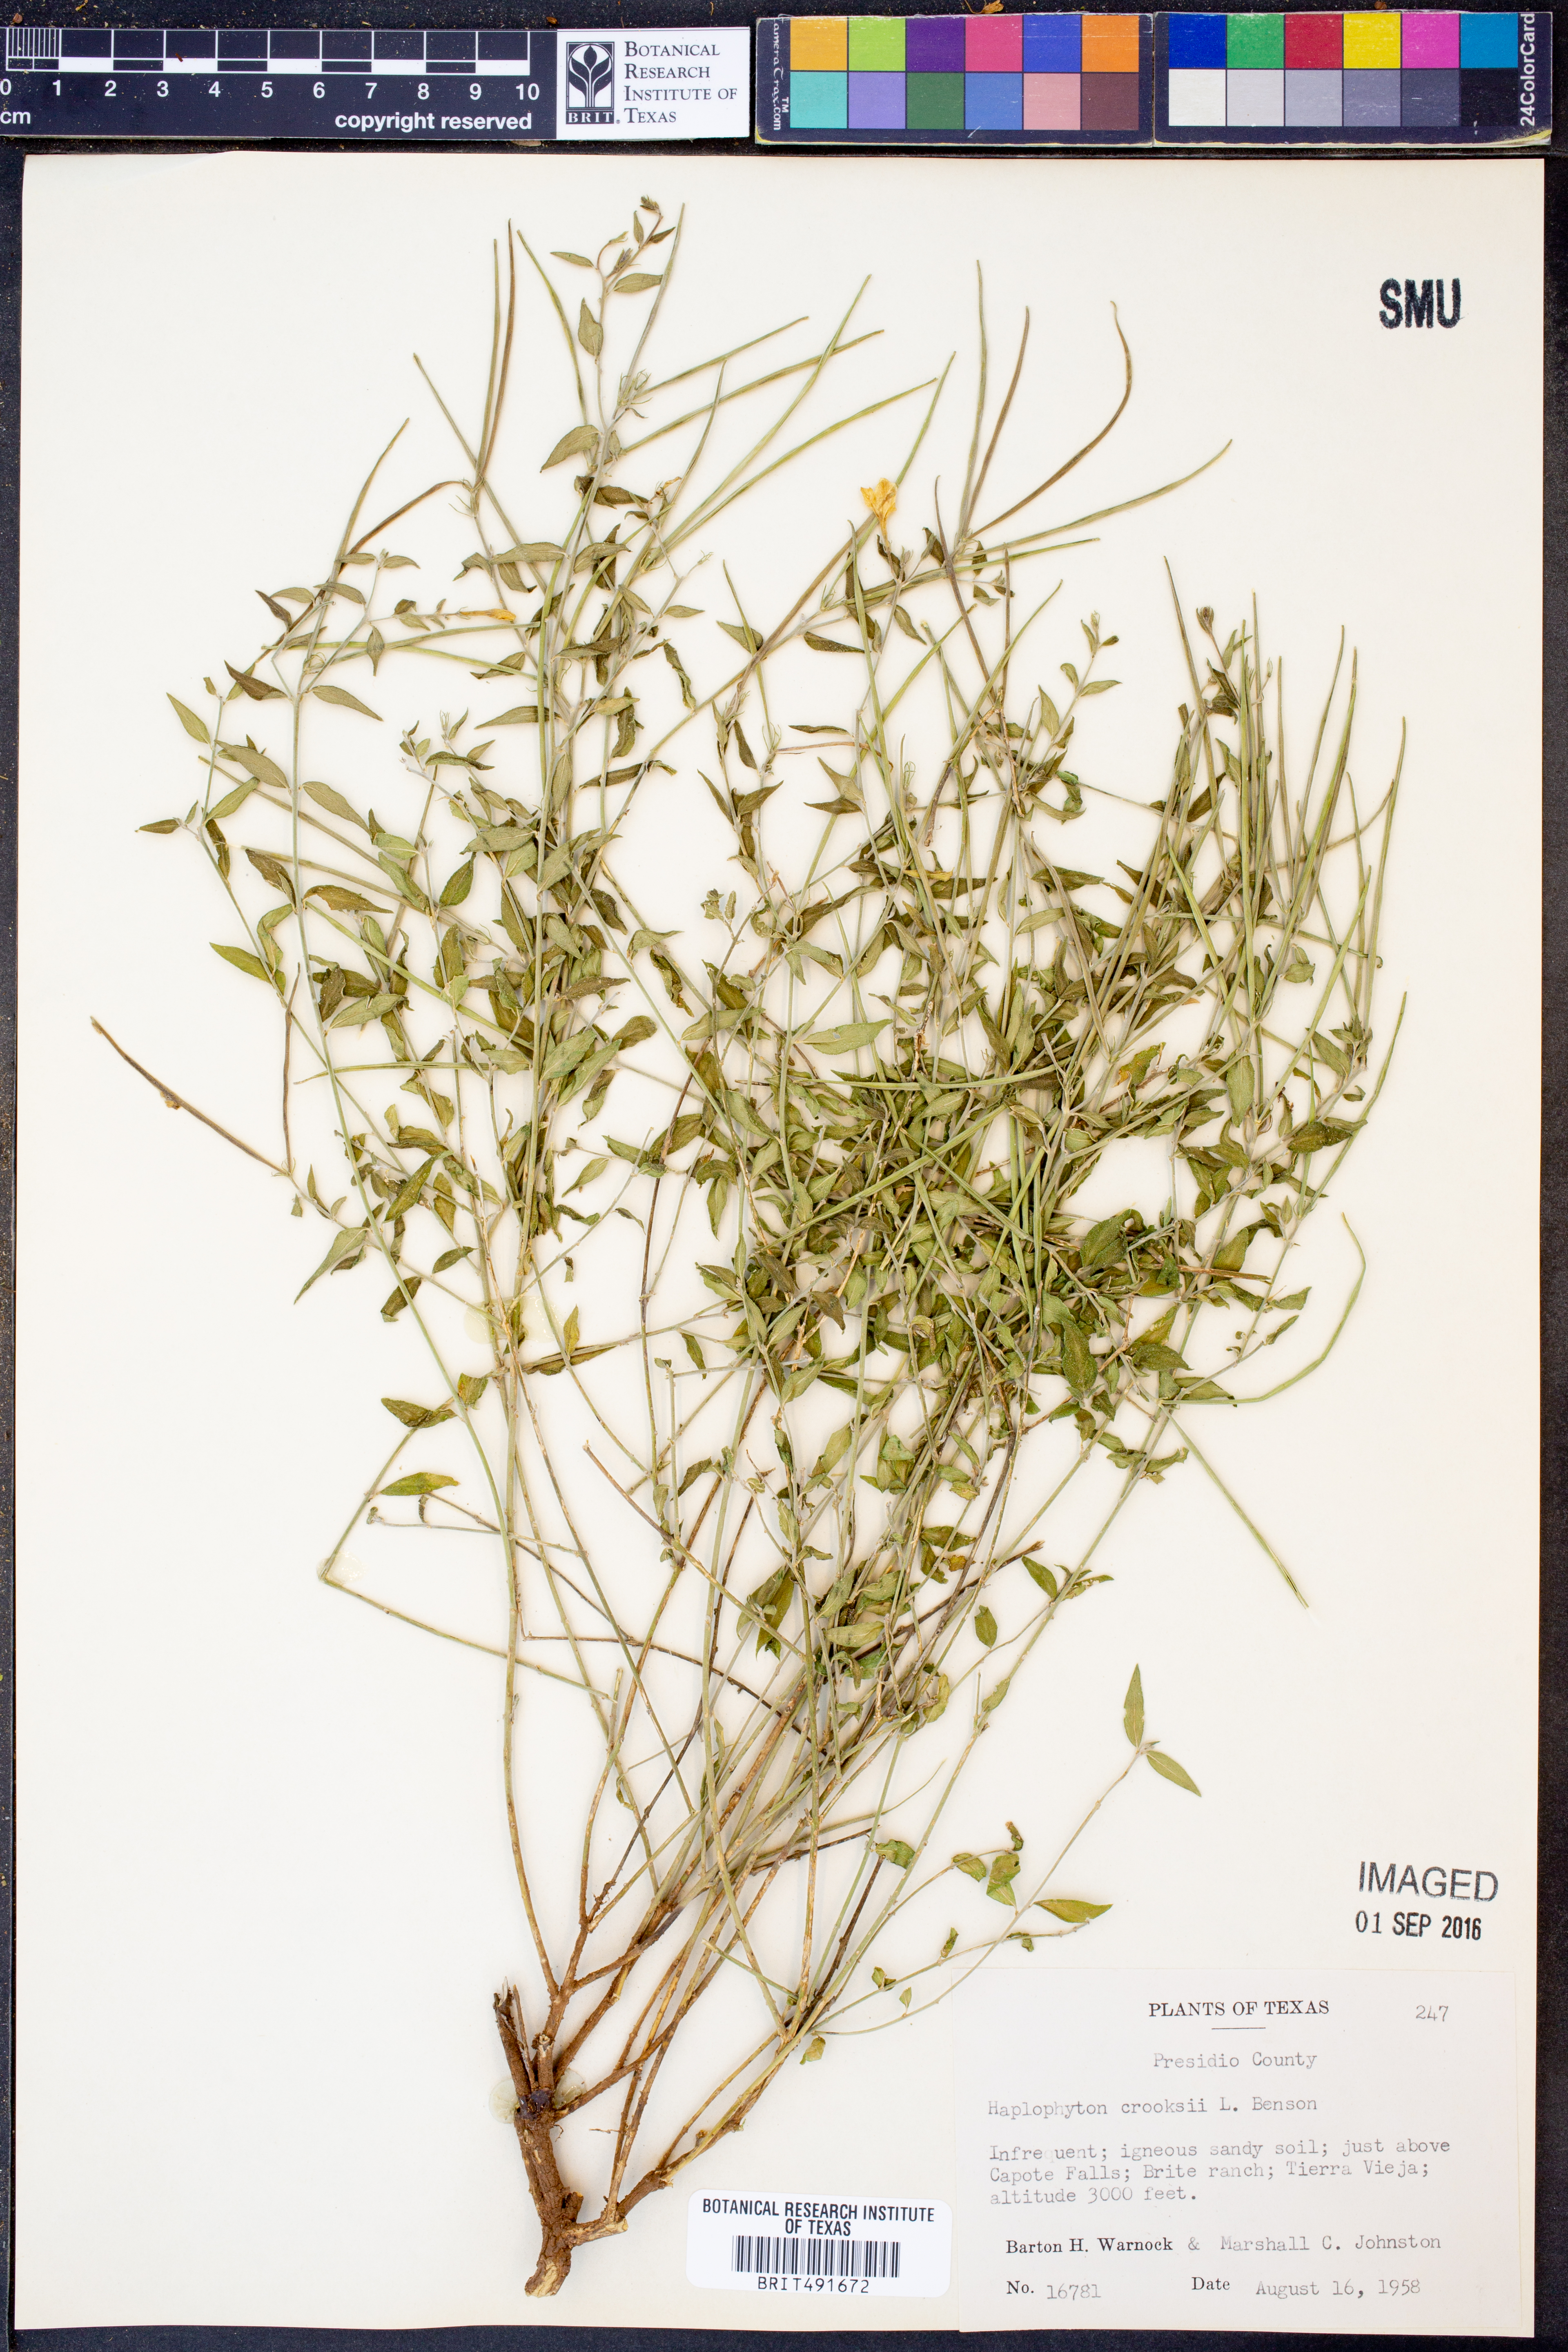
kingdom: Plantae
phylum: Tracheophyta
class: Magnoliopsida
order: Gentianales
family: Apocynaceae
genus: Haplophyton
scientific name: Haplophyton crooksii
